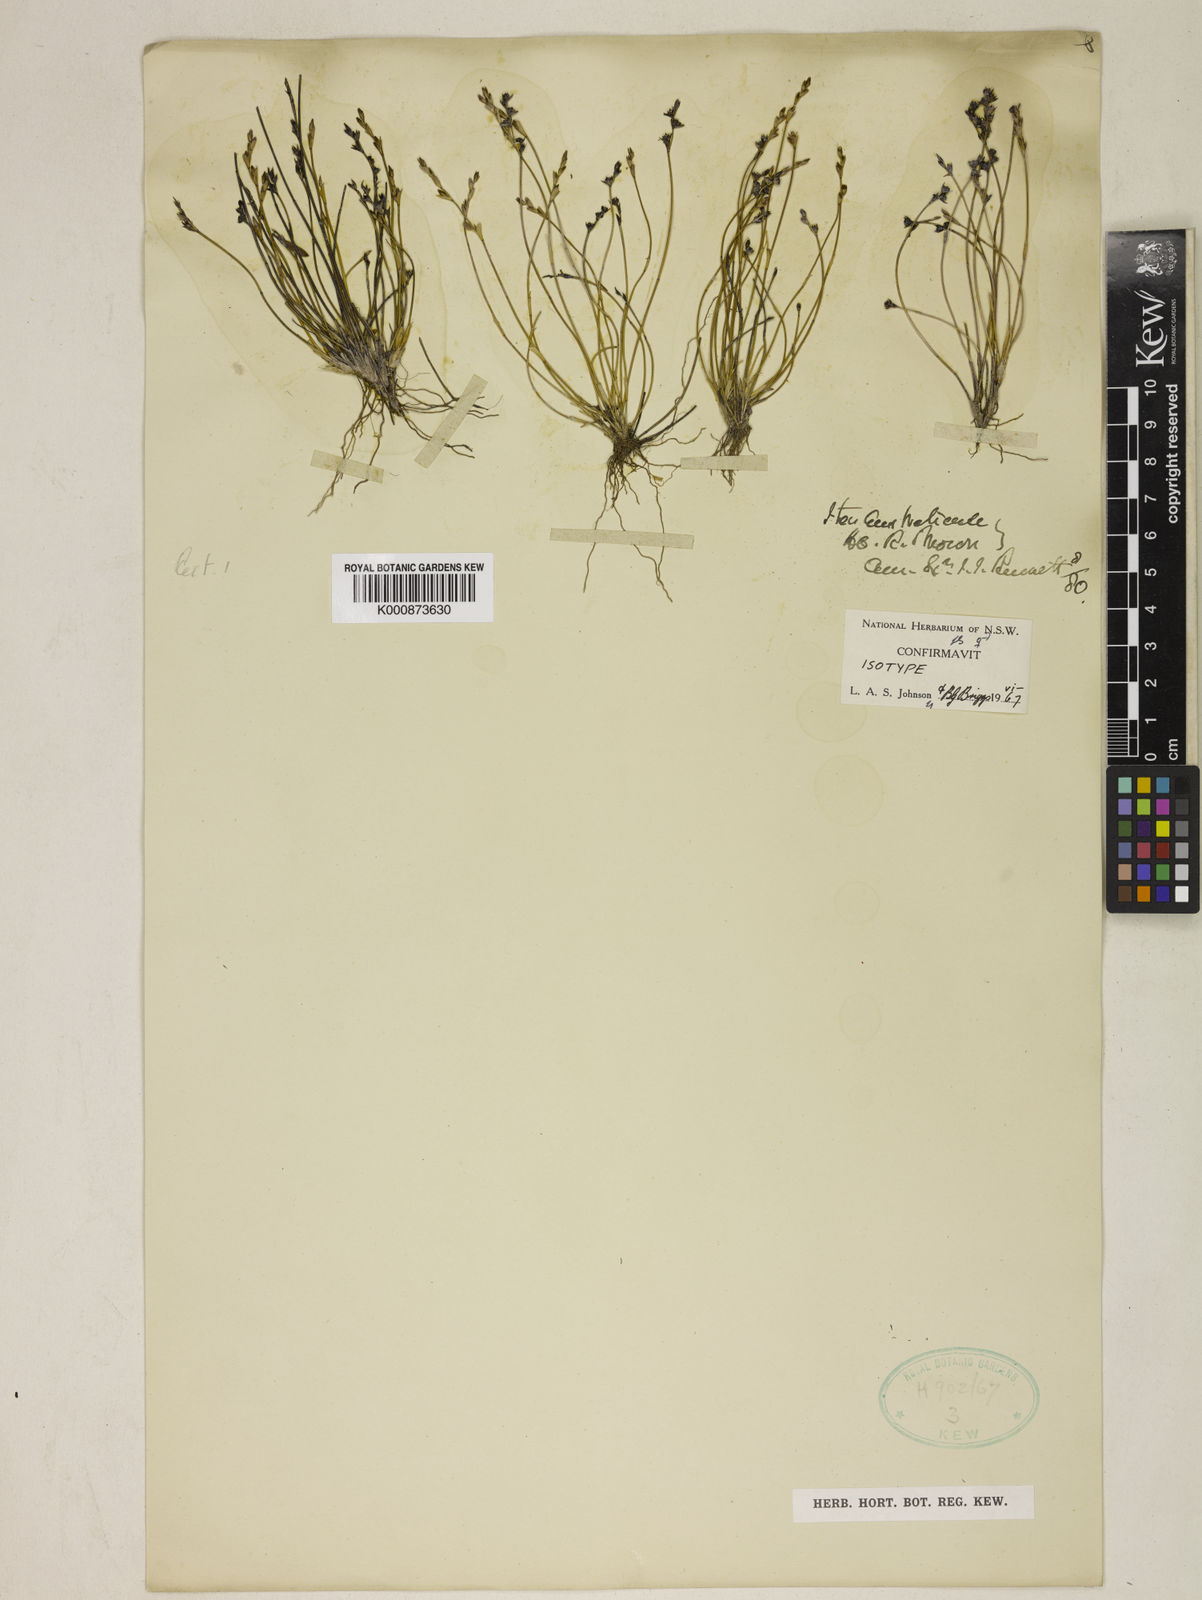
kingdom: Plantae
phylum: Tracheophyta
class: Liliopsida
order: Poales
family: Restionaceae
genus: Lepyrodia
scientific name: Lepyrodia hermaphrodita
